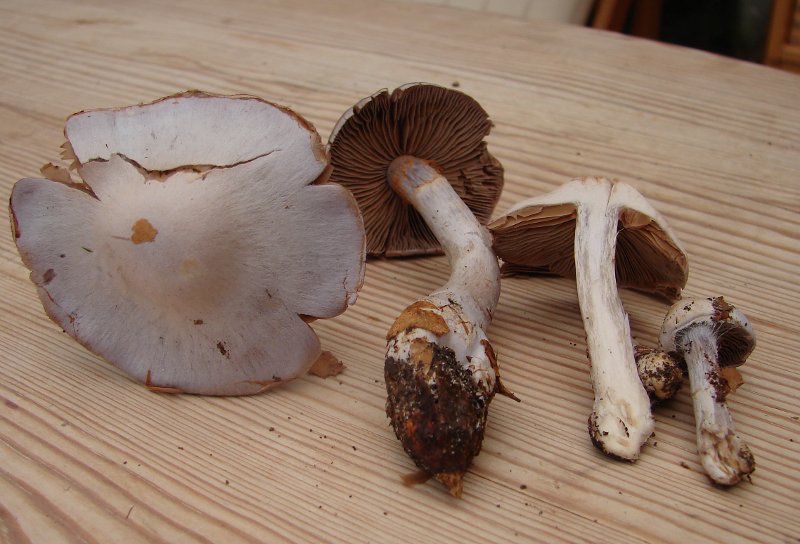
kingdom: Fungi
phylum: Basidiomycota
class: Agaricomycetes
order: Agaricales
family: Cortinariaceae
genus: Cortinarius
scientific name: Cortinarius alboviolaceus
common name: lysviolet slørhat
